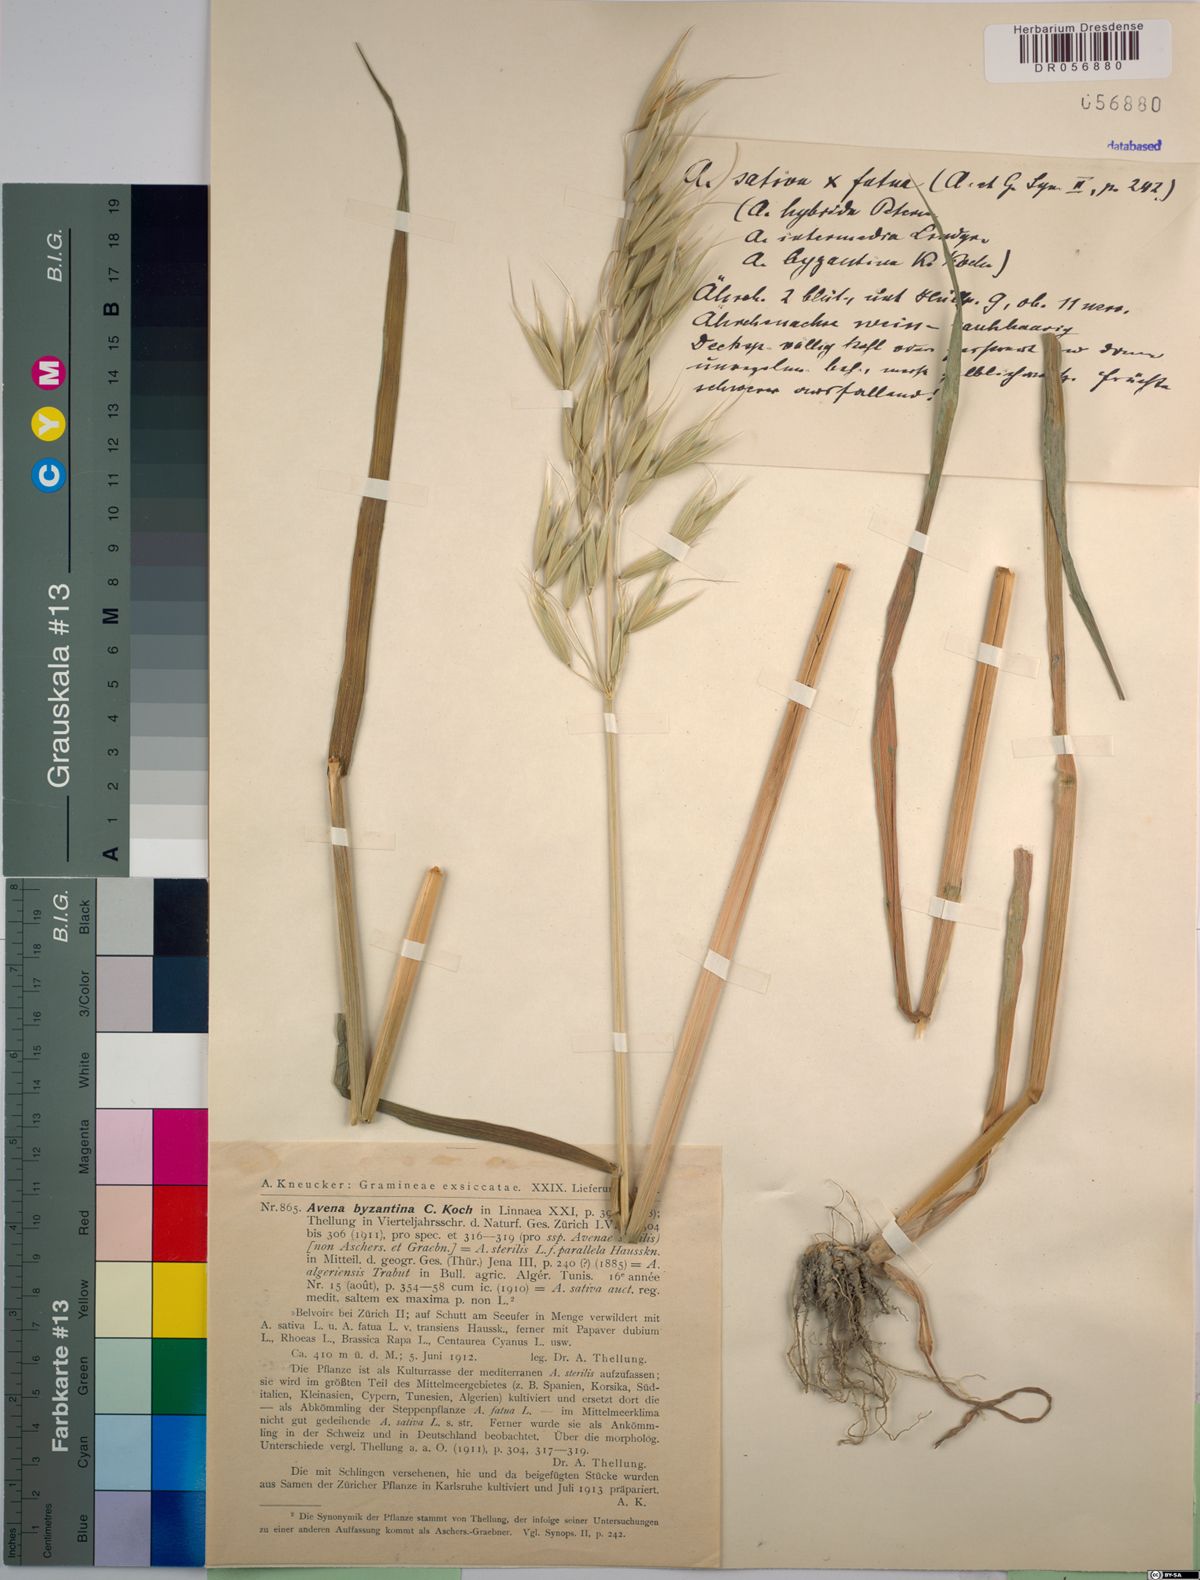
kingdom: Plantae
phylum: Tracheophyta
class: Liliopsida
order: Poales
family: Poaceae
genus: Avena
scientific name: Avena byzantina
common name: Algerian oat
